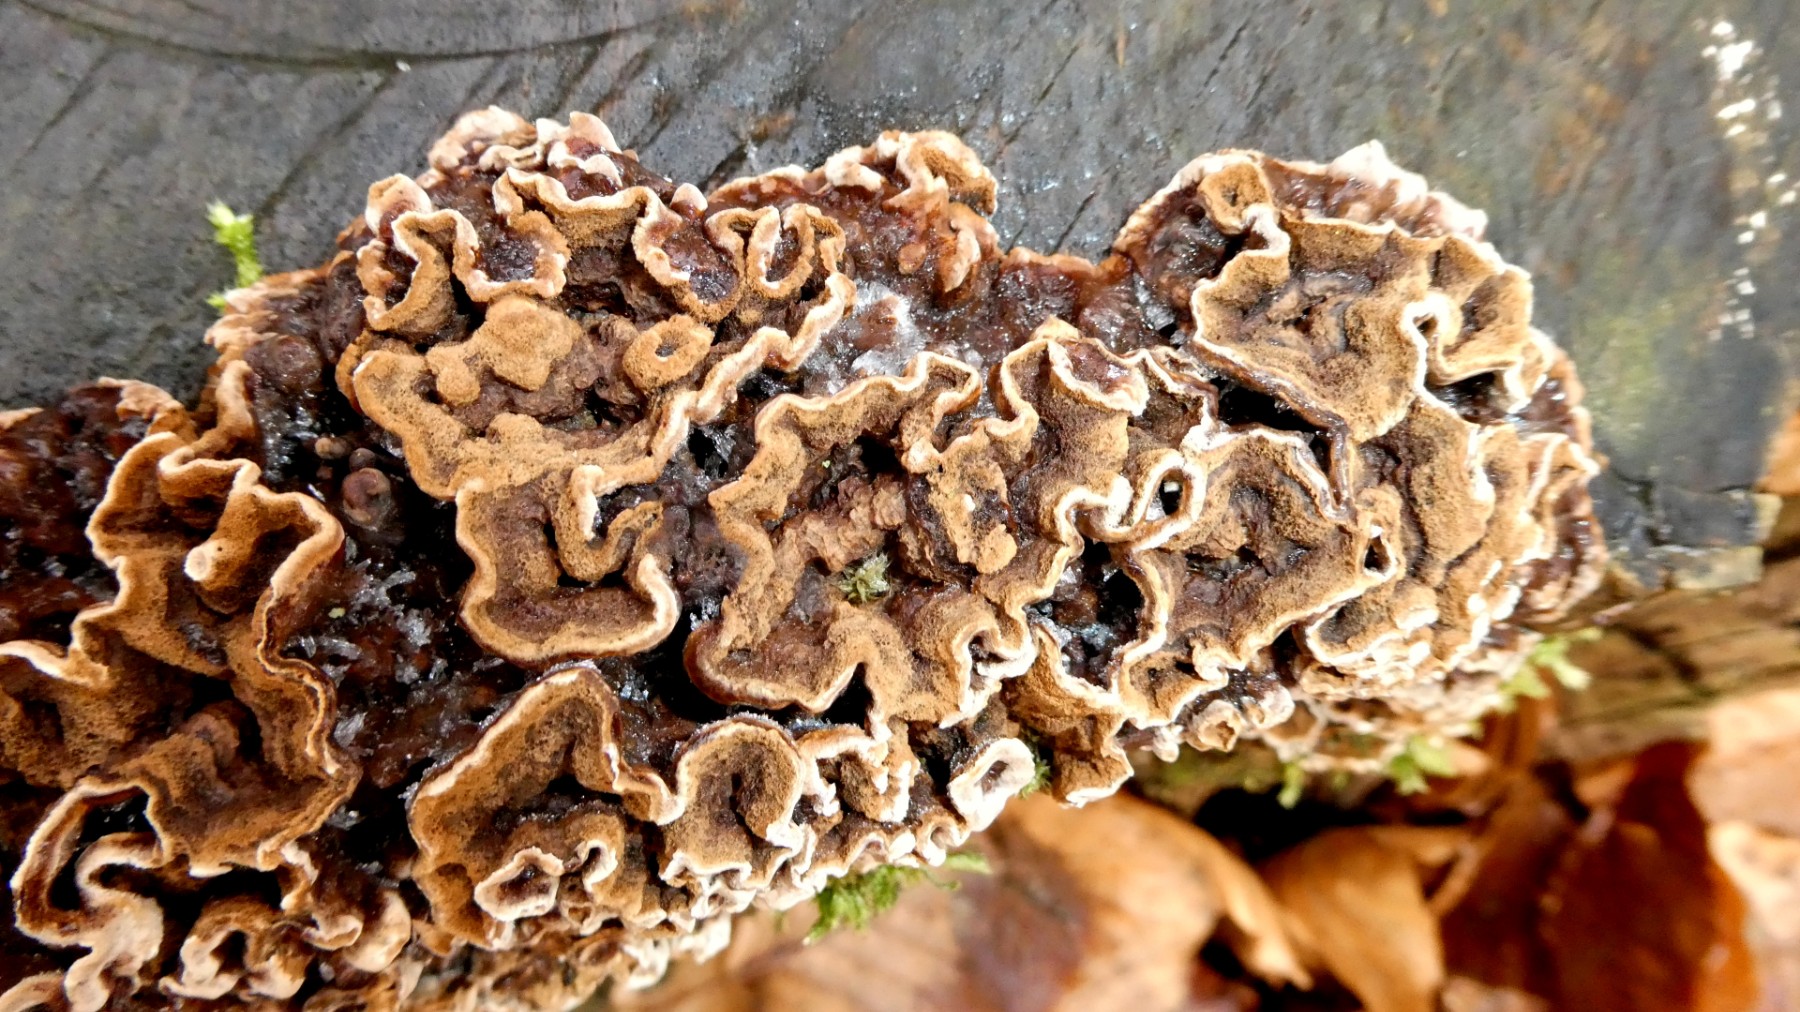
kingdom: Fungi
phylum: Basidiomycota
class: Agaricomycetes
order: Hymenochaetales
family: Hymenochaetaceae
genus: Mensularia
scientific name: Mensularia nodulosa
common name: bøge-spejlporesvamp
